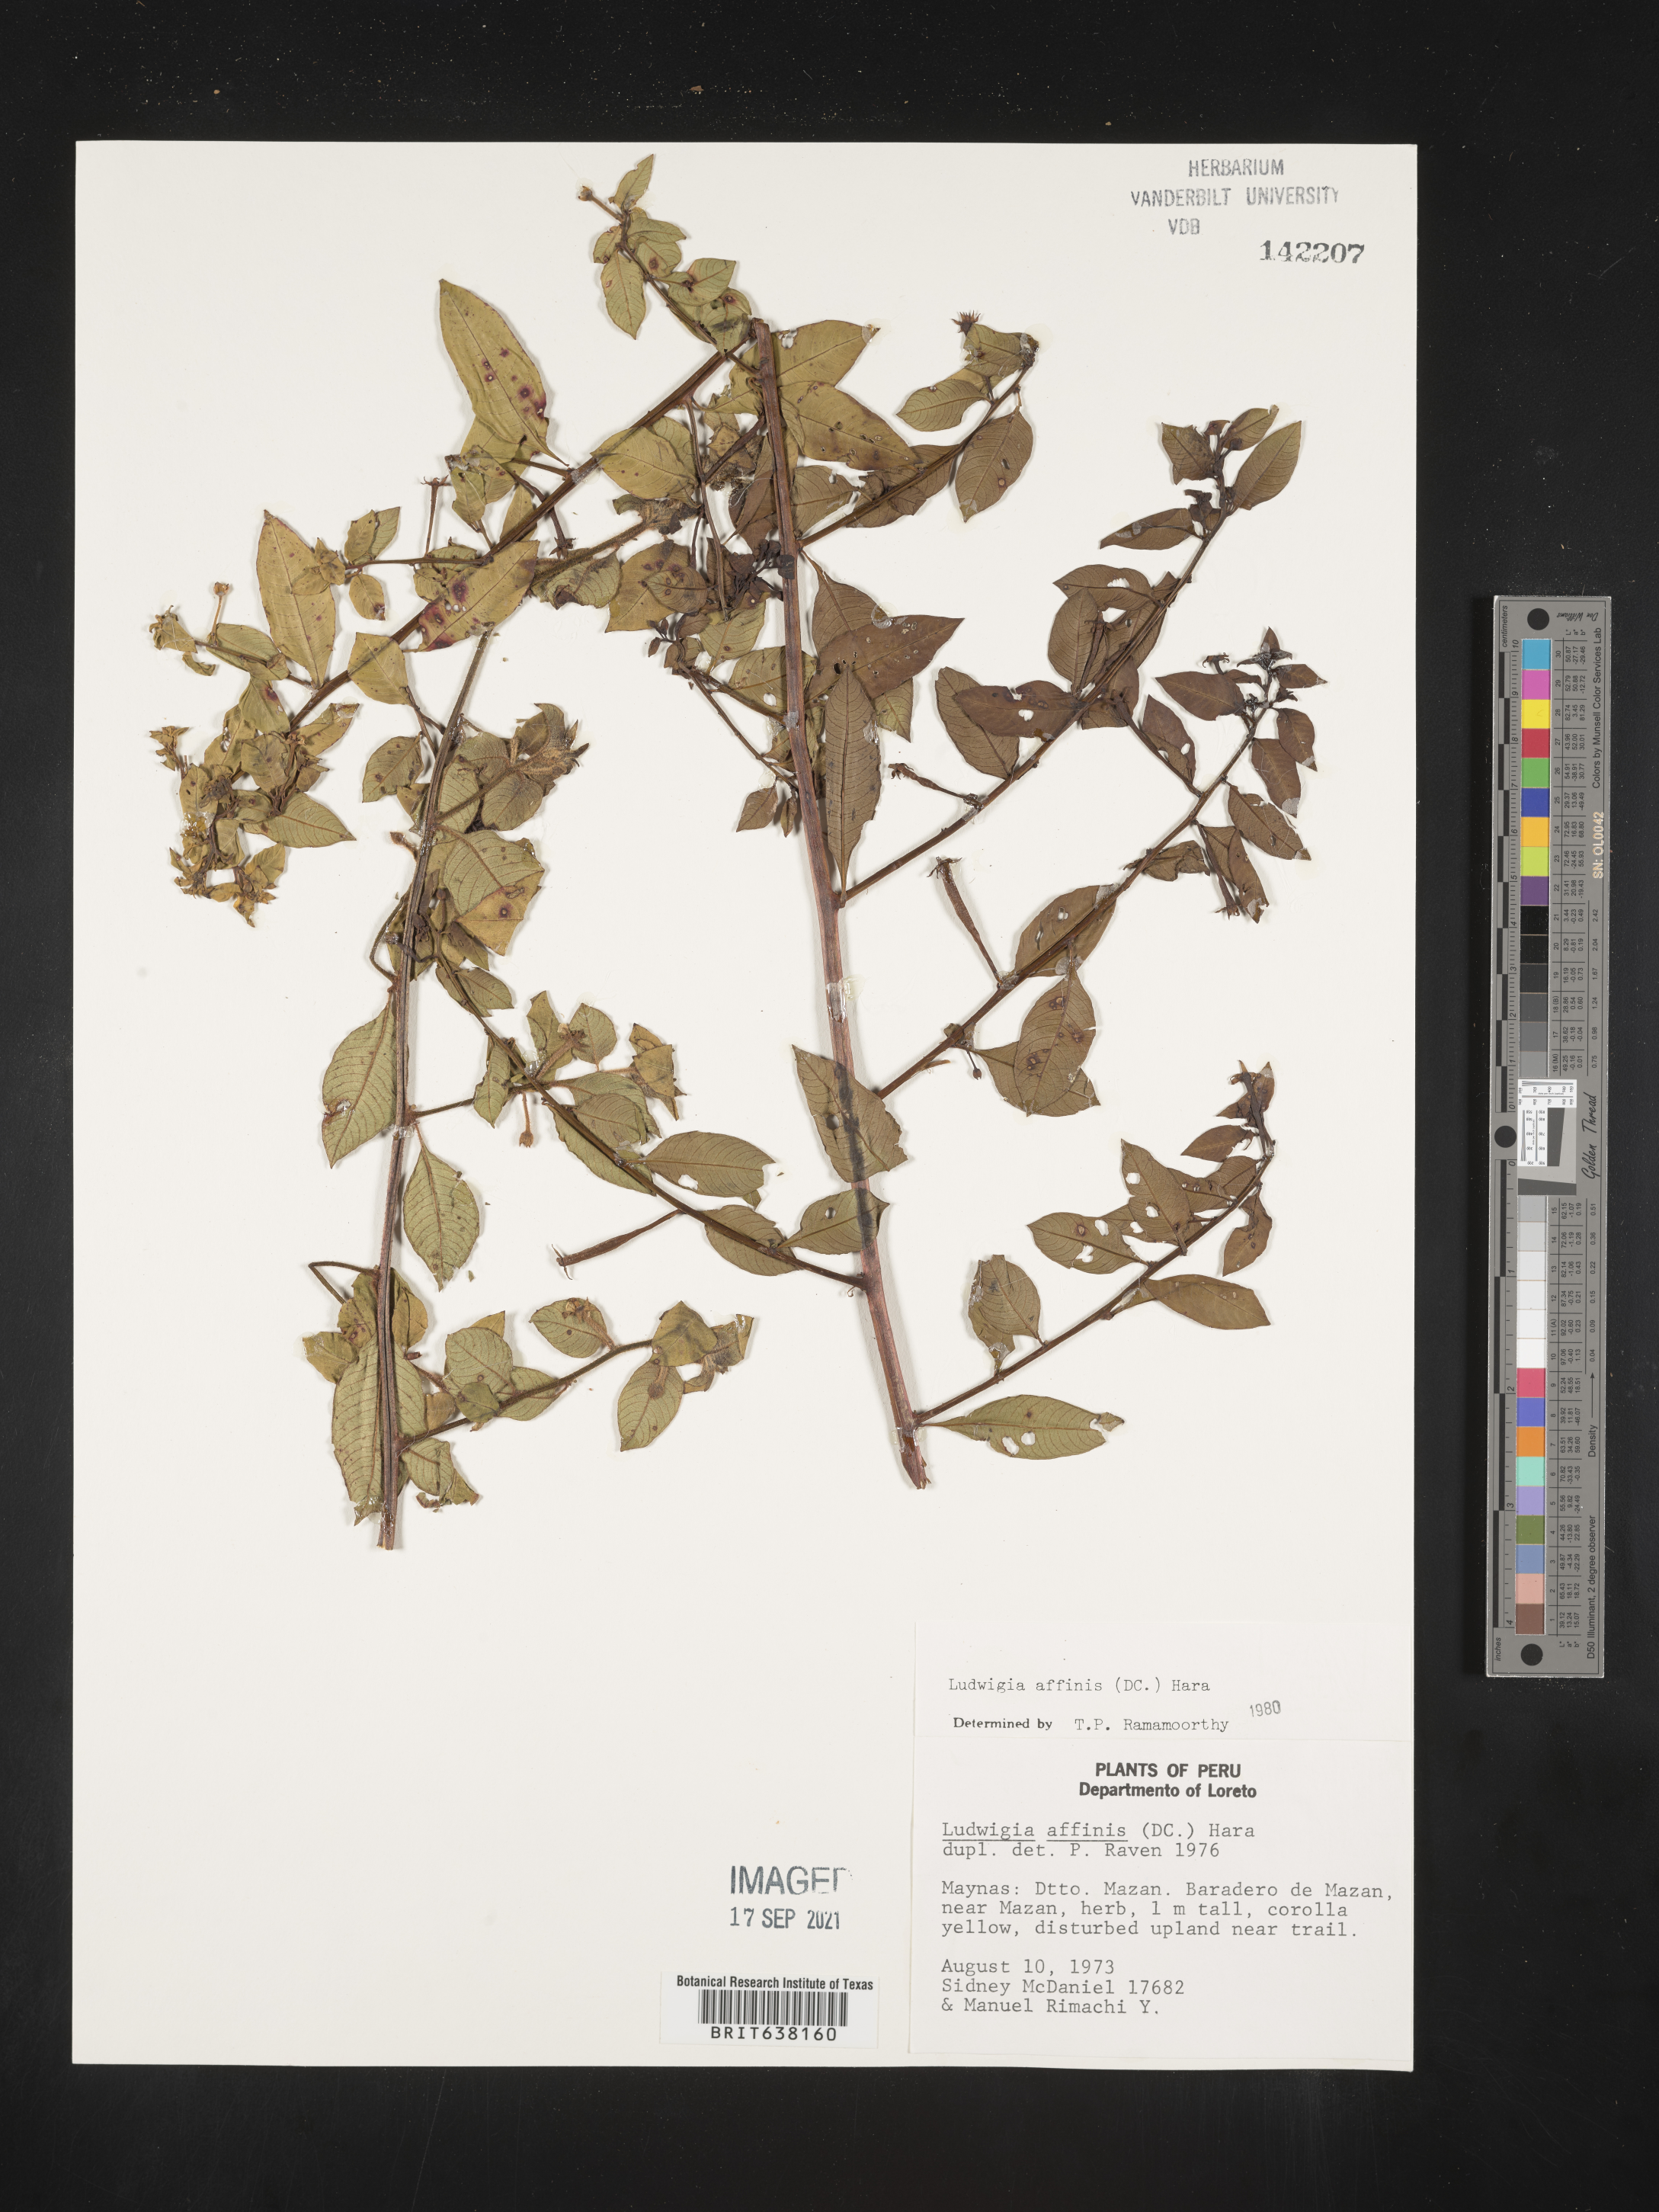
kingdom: Plantae
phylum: Tracheophyta
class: Magnoliopsida
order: Myrtales
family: Onagraceae
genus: Ludwigia
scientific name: Ludwigia
